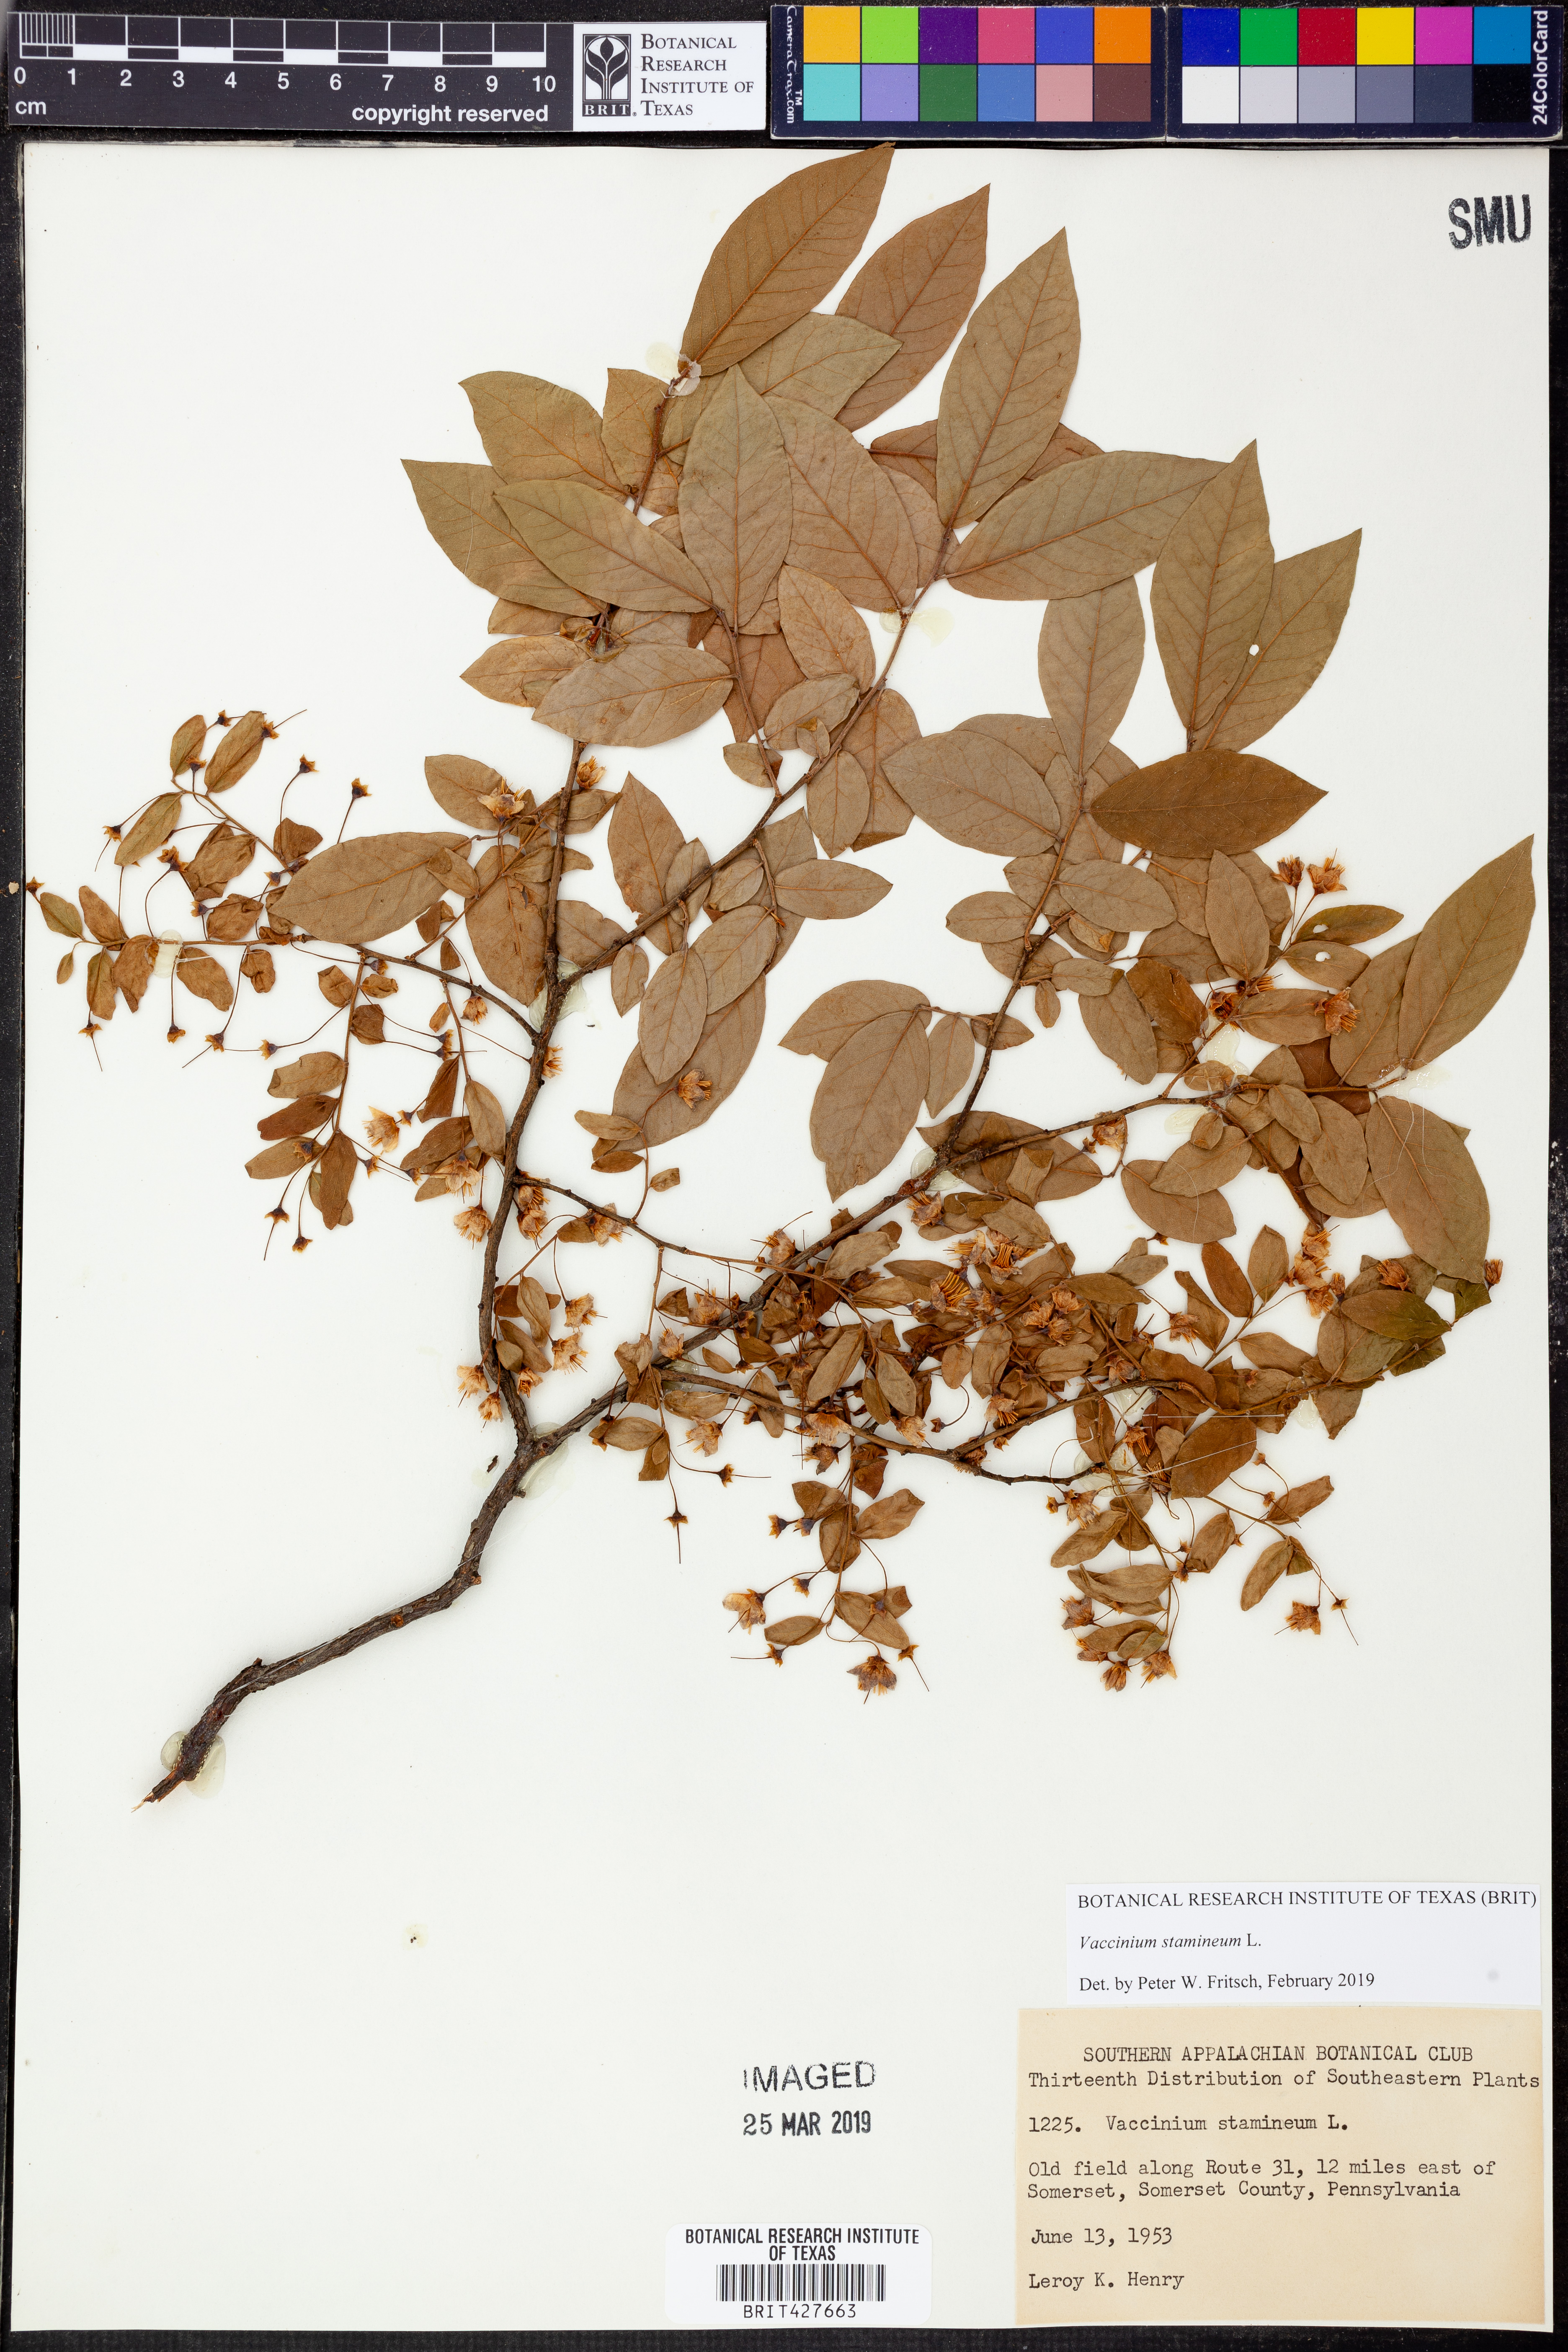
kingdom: Plantae
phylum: Tracheophyta
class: Magnoliopsida
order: Ericales
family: Ericaceae
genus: Vaccinium
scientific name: Vaccinium stamineum
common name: Deerberry
